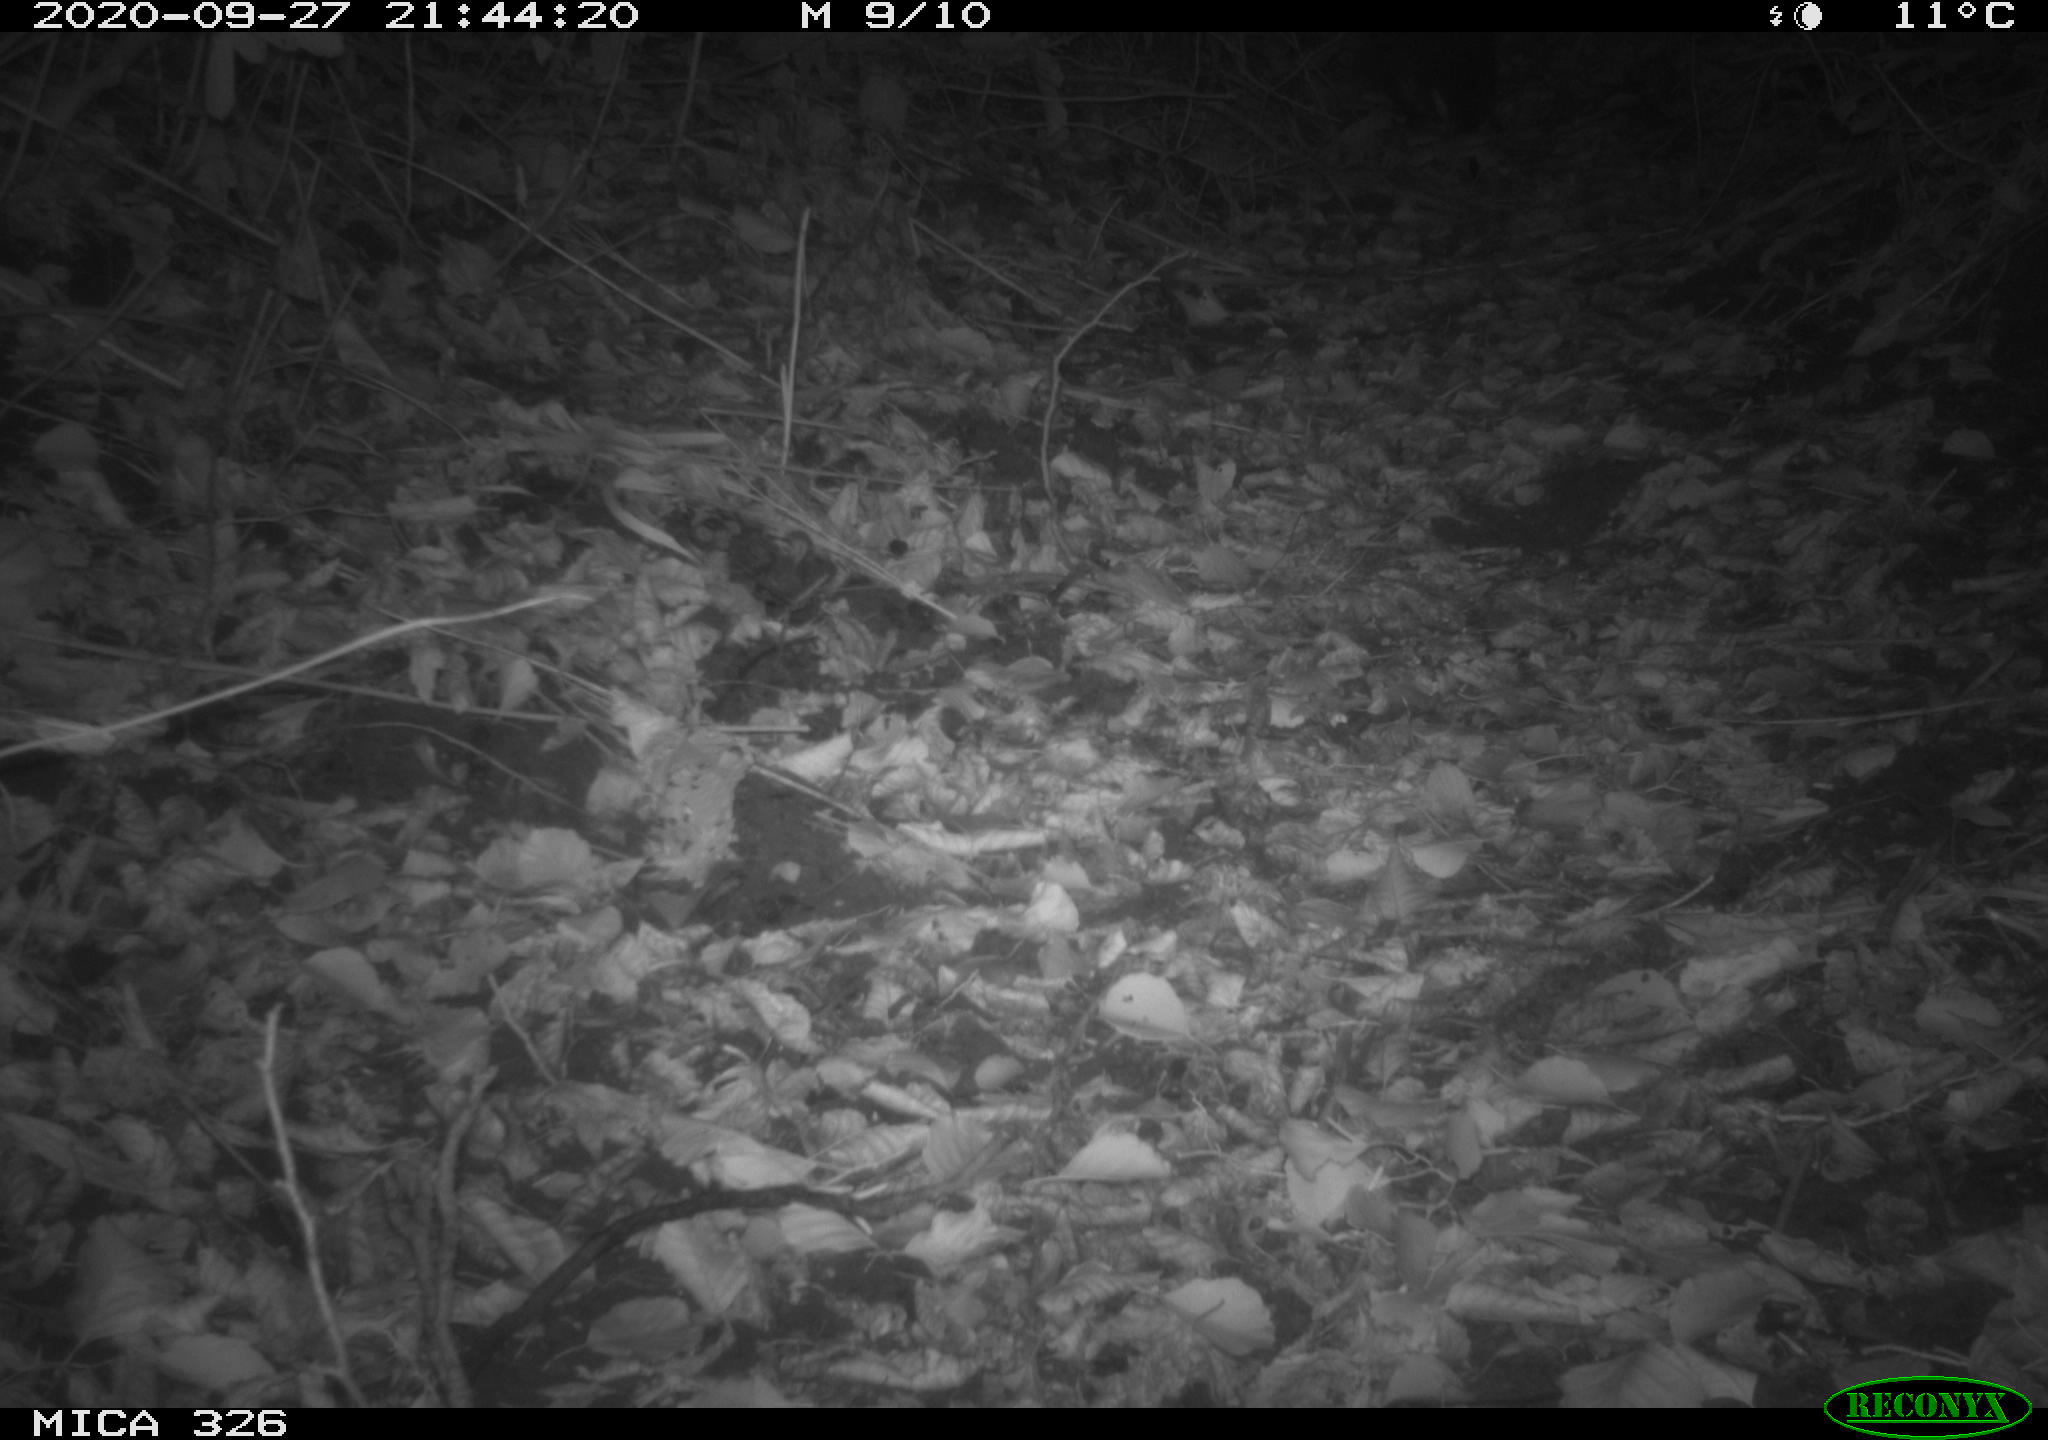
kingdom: Animalia
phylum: Chordata
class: Mammalia
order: Rodentia
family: Myocastoridae
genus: Myocastor
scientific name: Myocastor coypus
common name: Coypu
